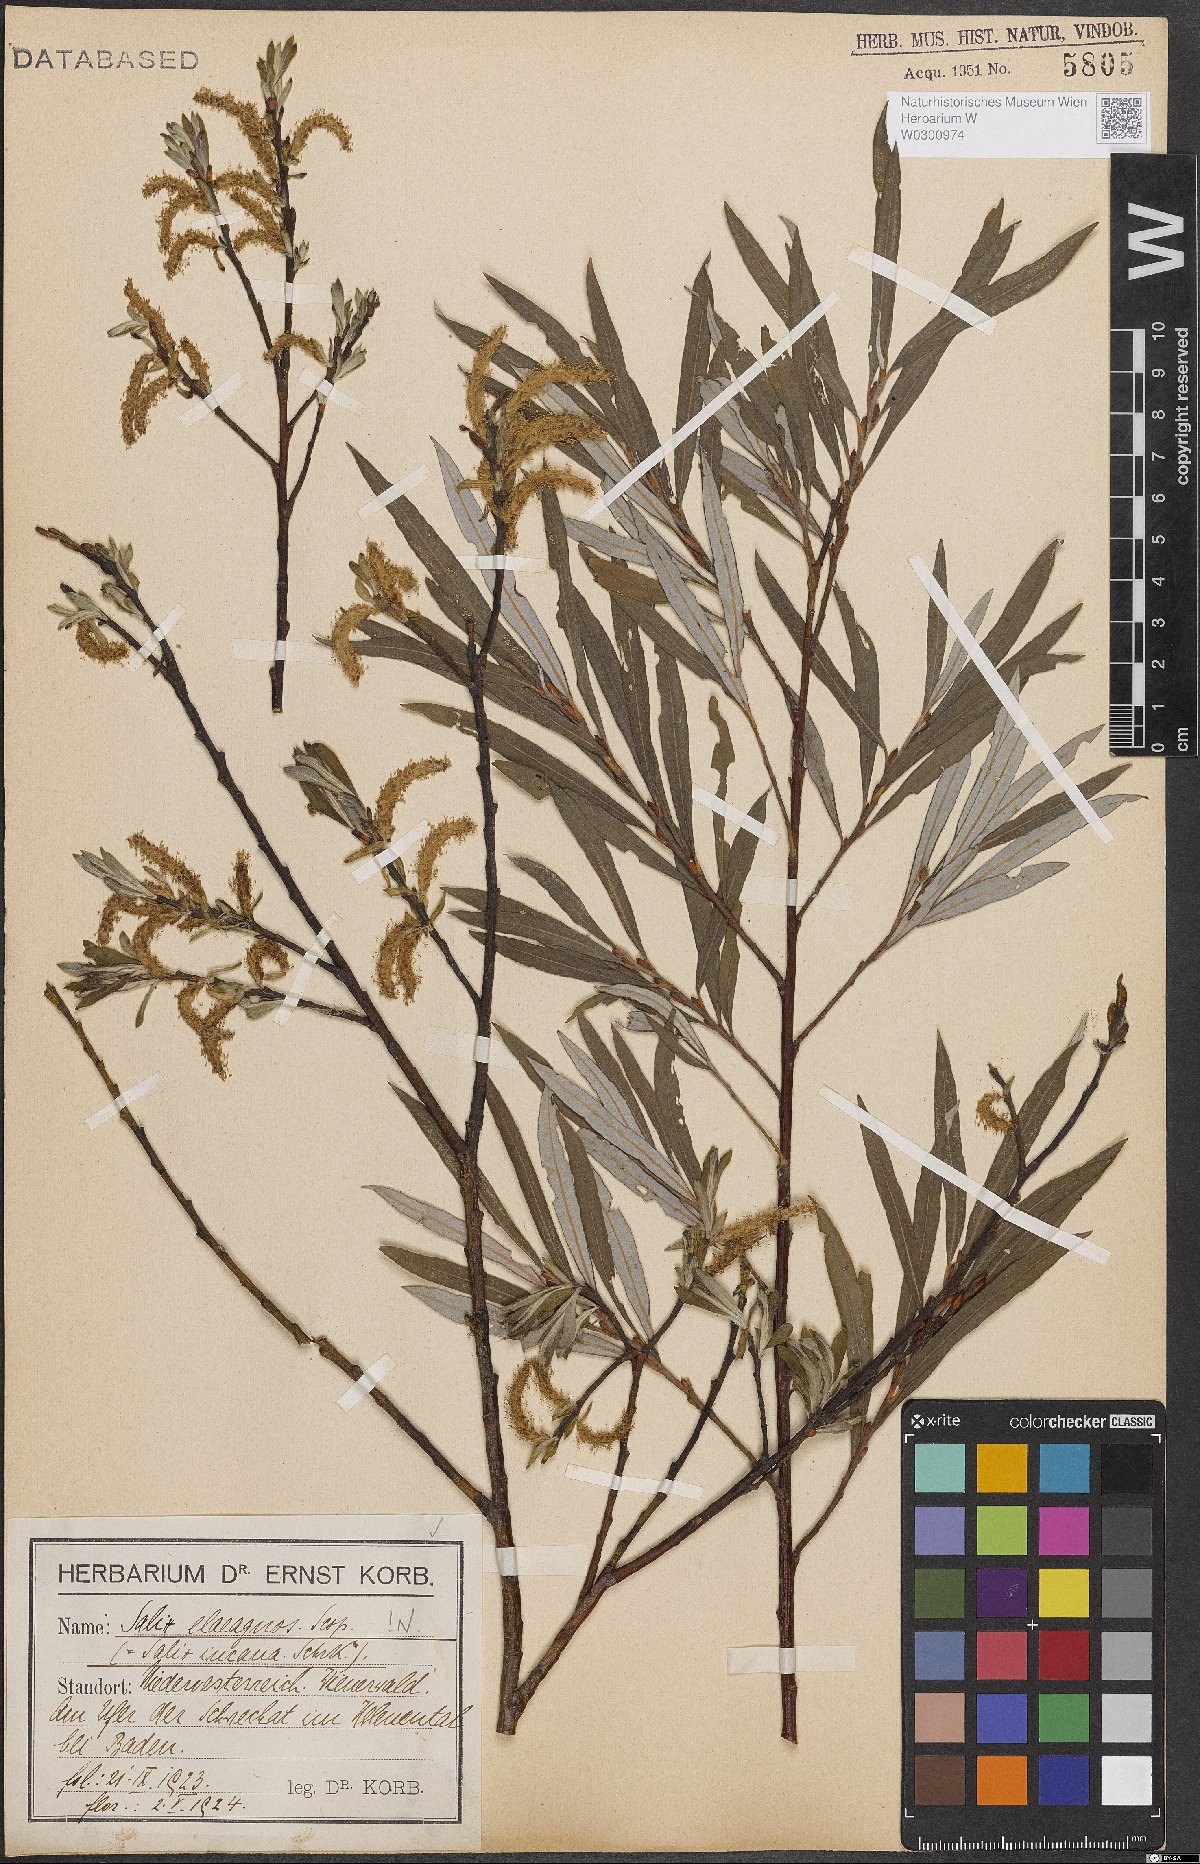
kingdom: Plantae
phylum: Tracheophyta
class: Magnoliopsida
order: Malpighiales
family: Salicaceae
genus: Salix
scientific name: Salix eleagnos
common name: Elaeagnus willow
